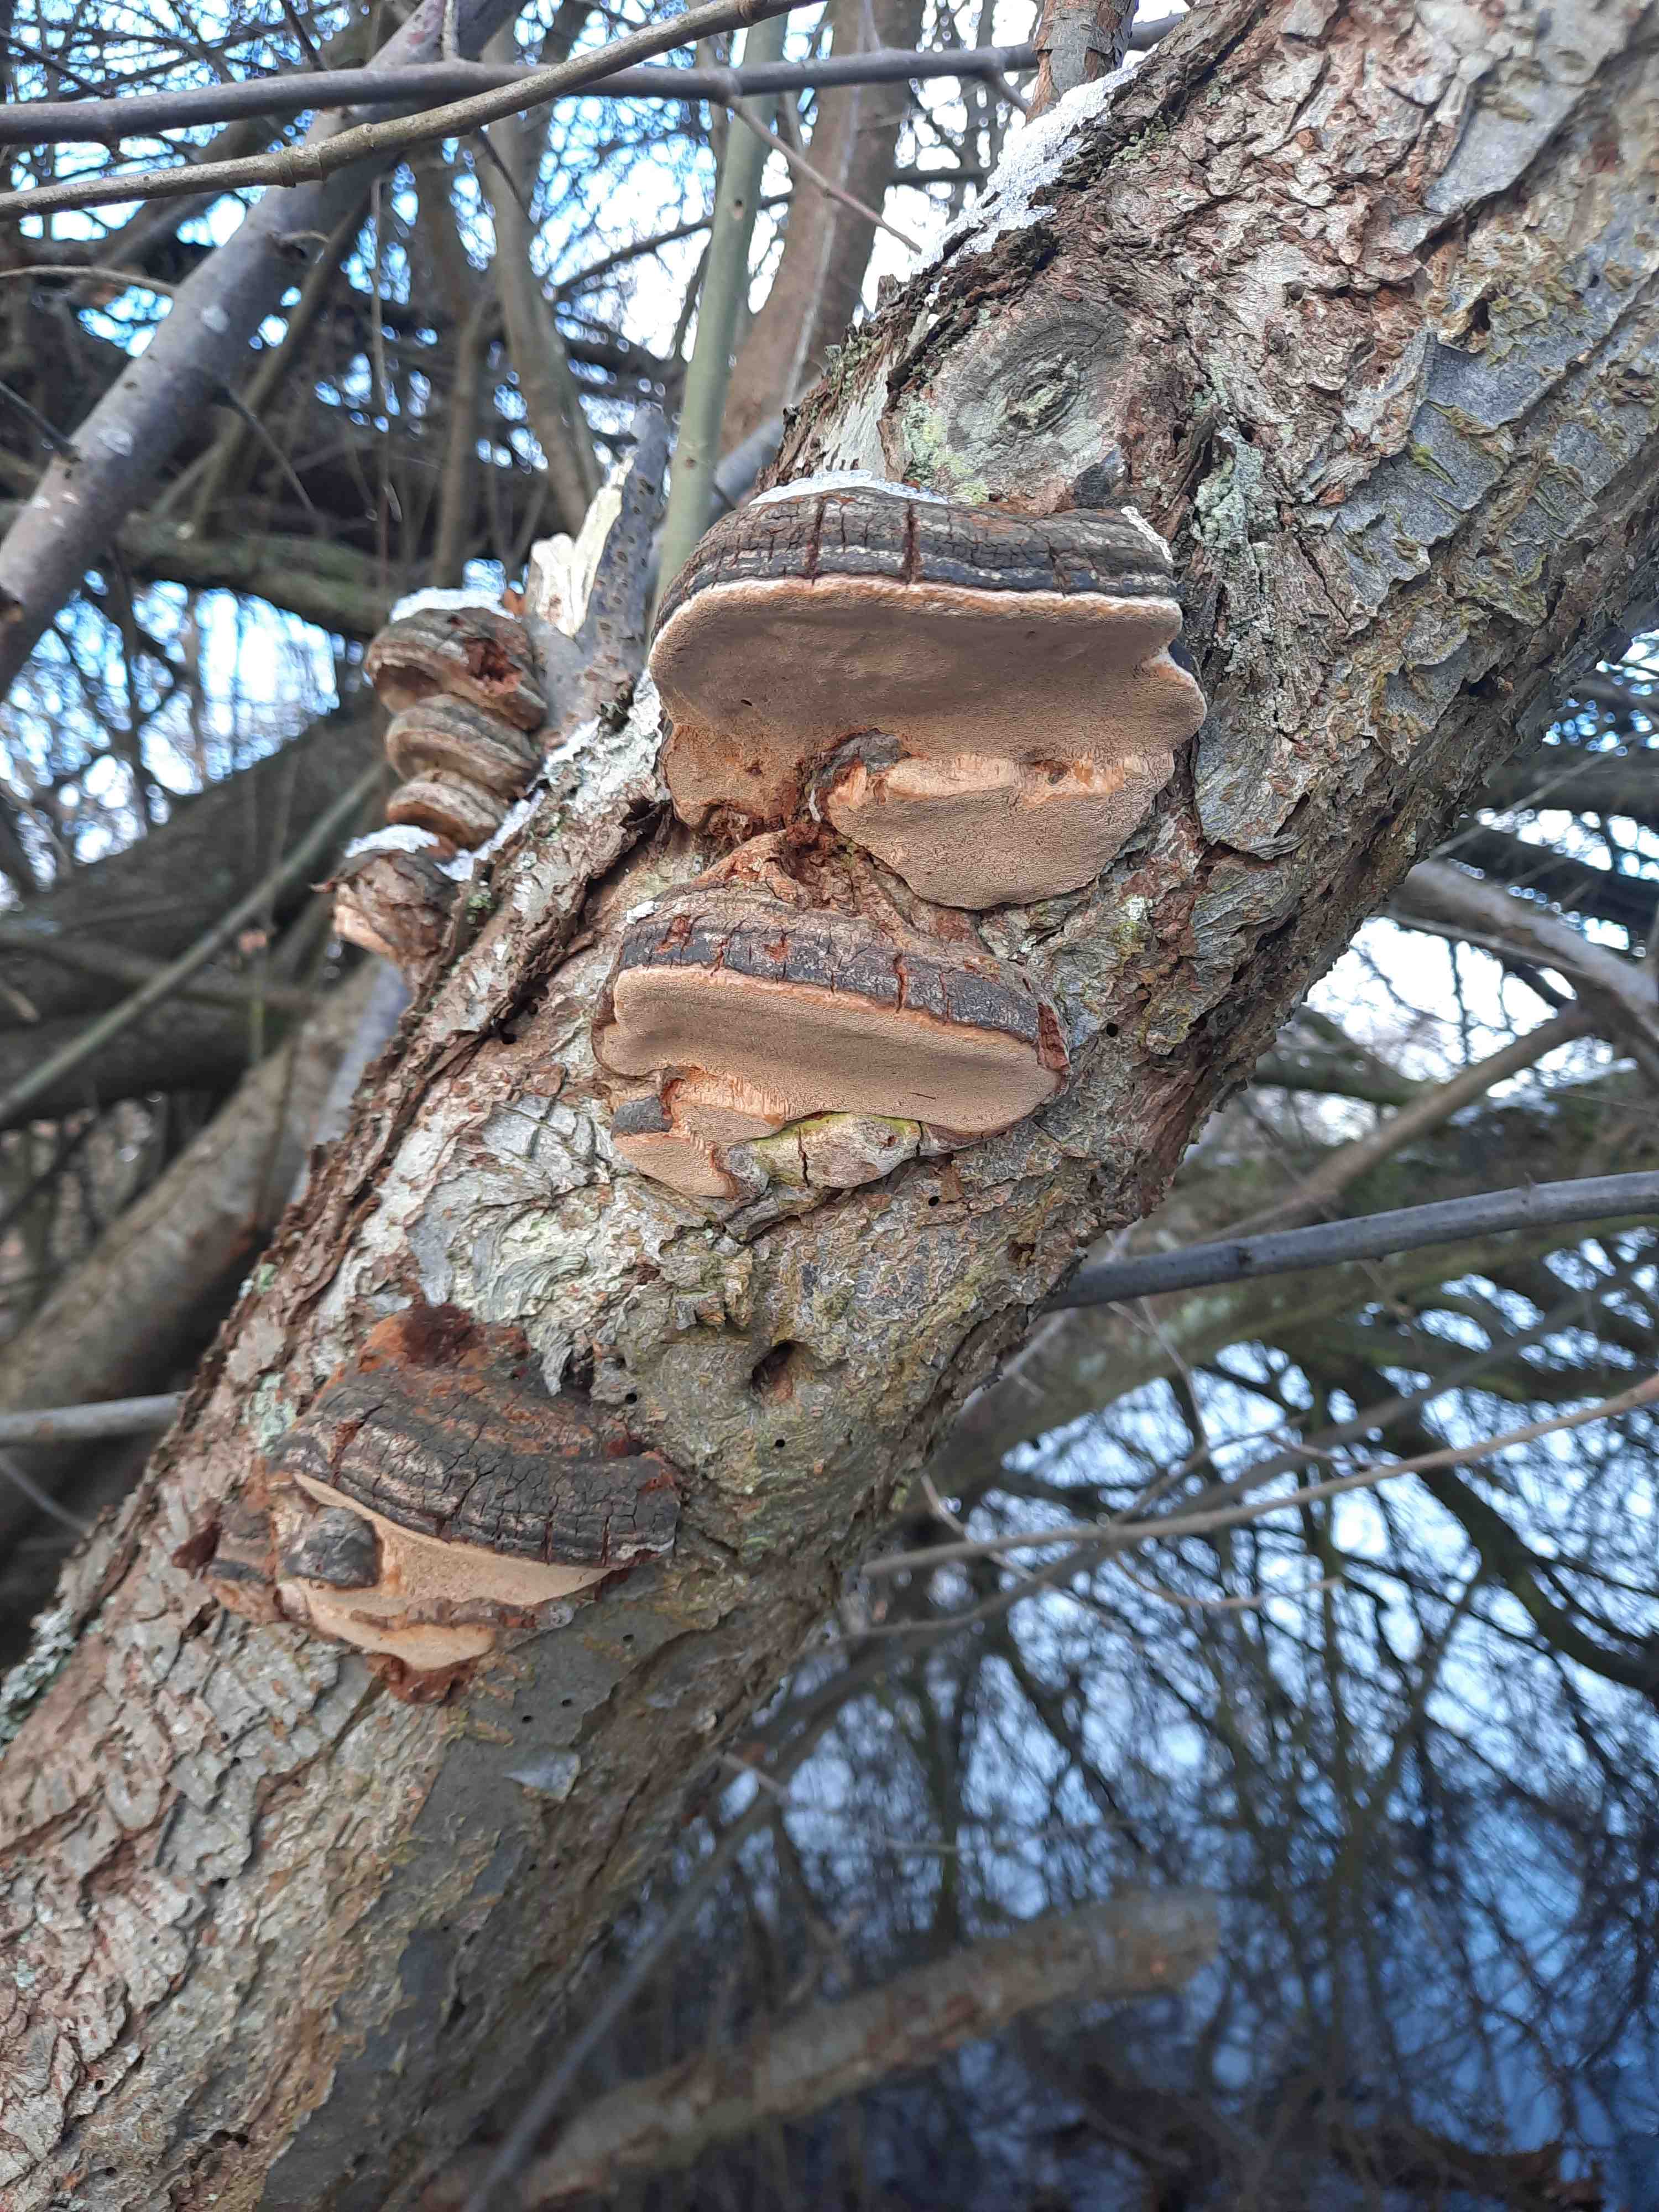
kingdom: Fungi
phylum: Basidiomycota
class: Agaricomycetes
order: Hymenochaetales
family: Hymenochaetaceae
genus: Phellinus
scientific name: Phellinus pomaceus
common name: blomme-ildporesvamp
